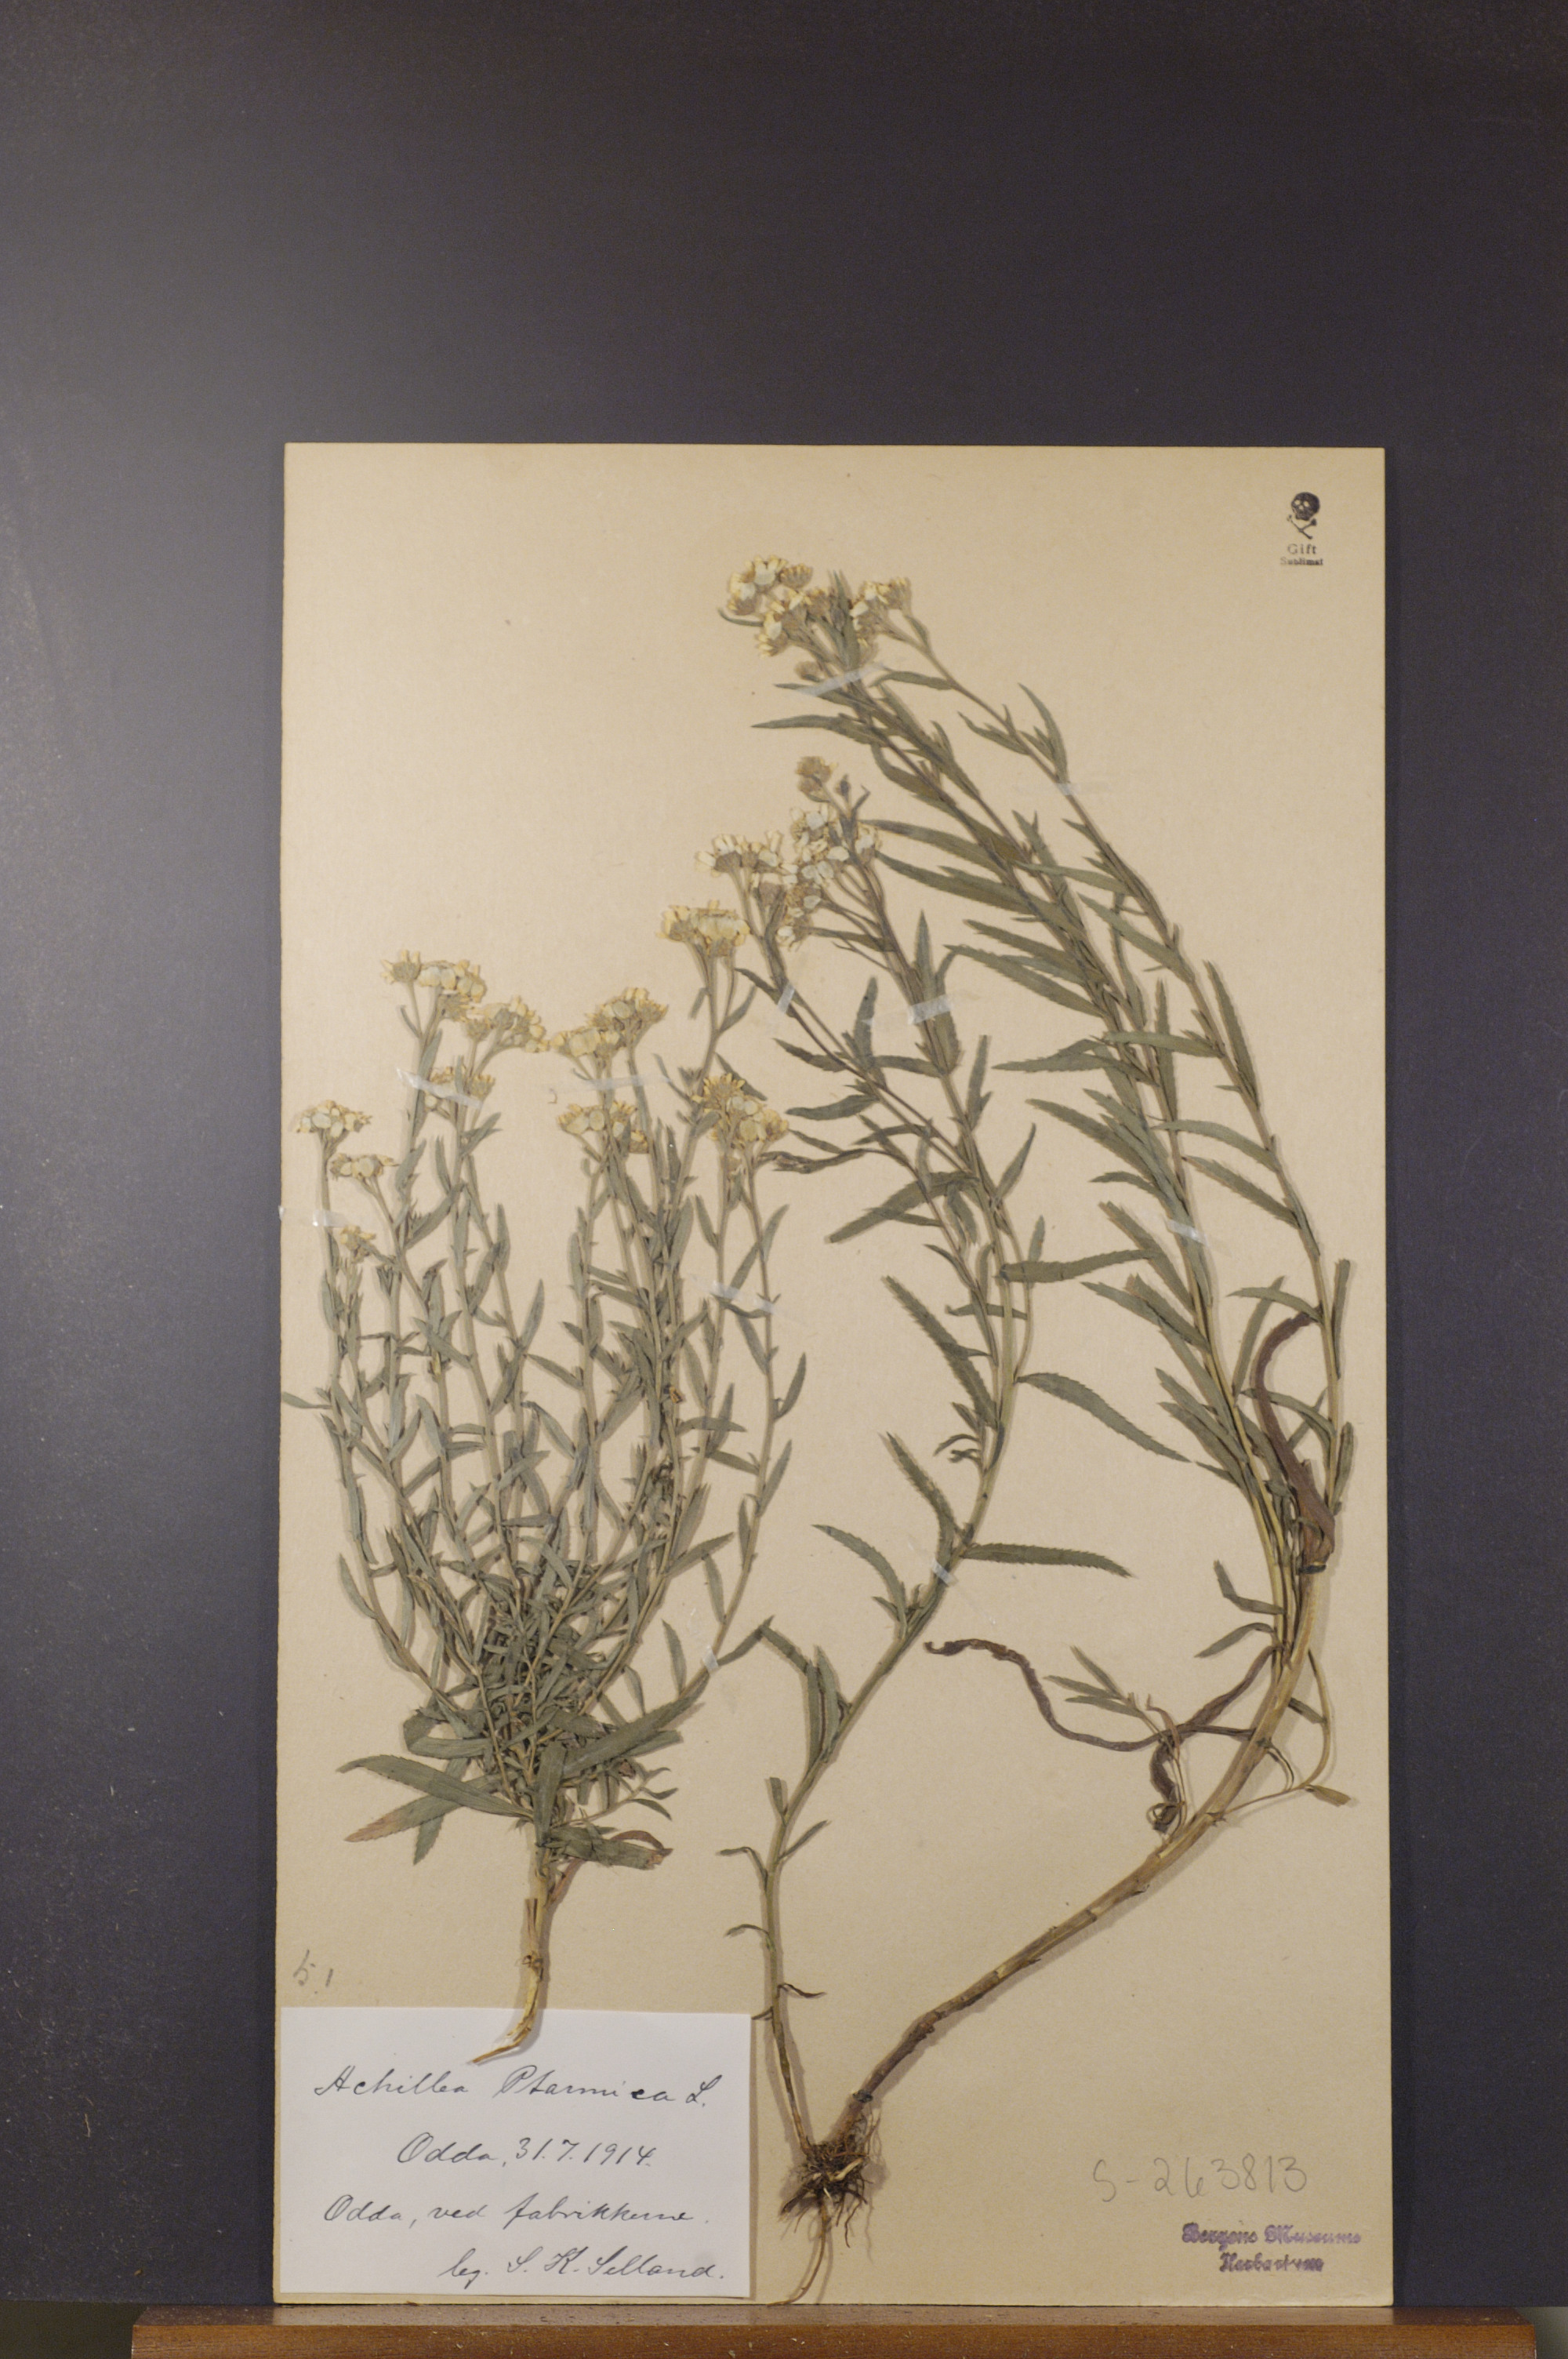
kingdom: Plantae
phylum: Tracheophyta
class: Magnoliopsida
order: Asterales
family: Asteraceae
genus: Achillea
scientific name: Achillea ptarmica
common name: Sneezeweed
